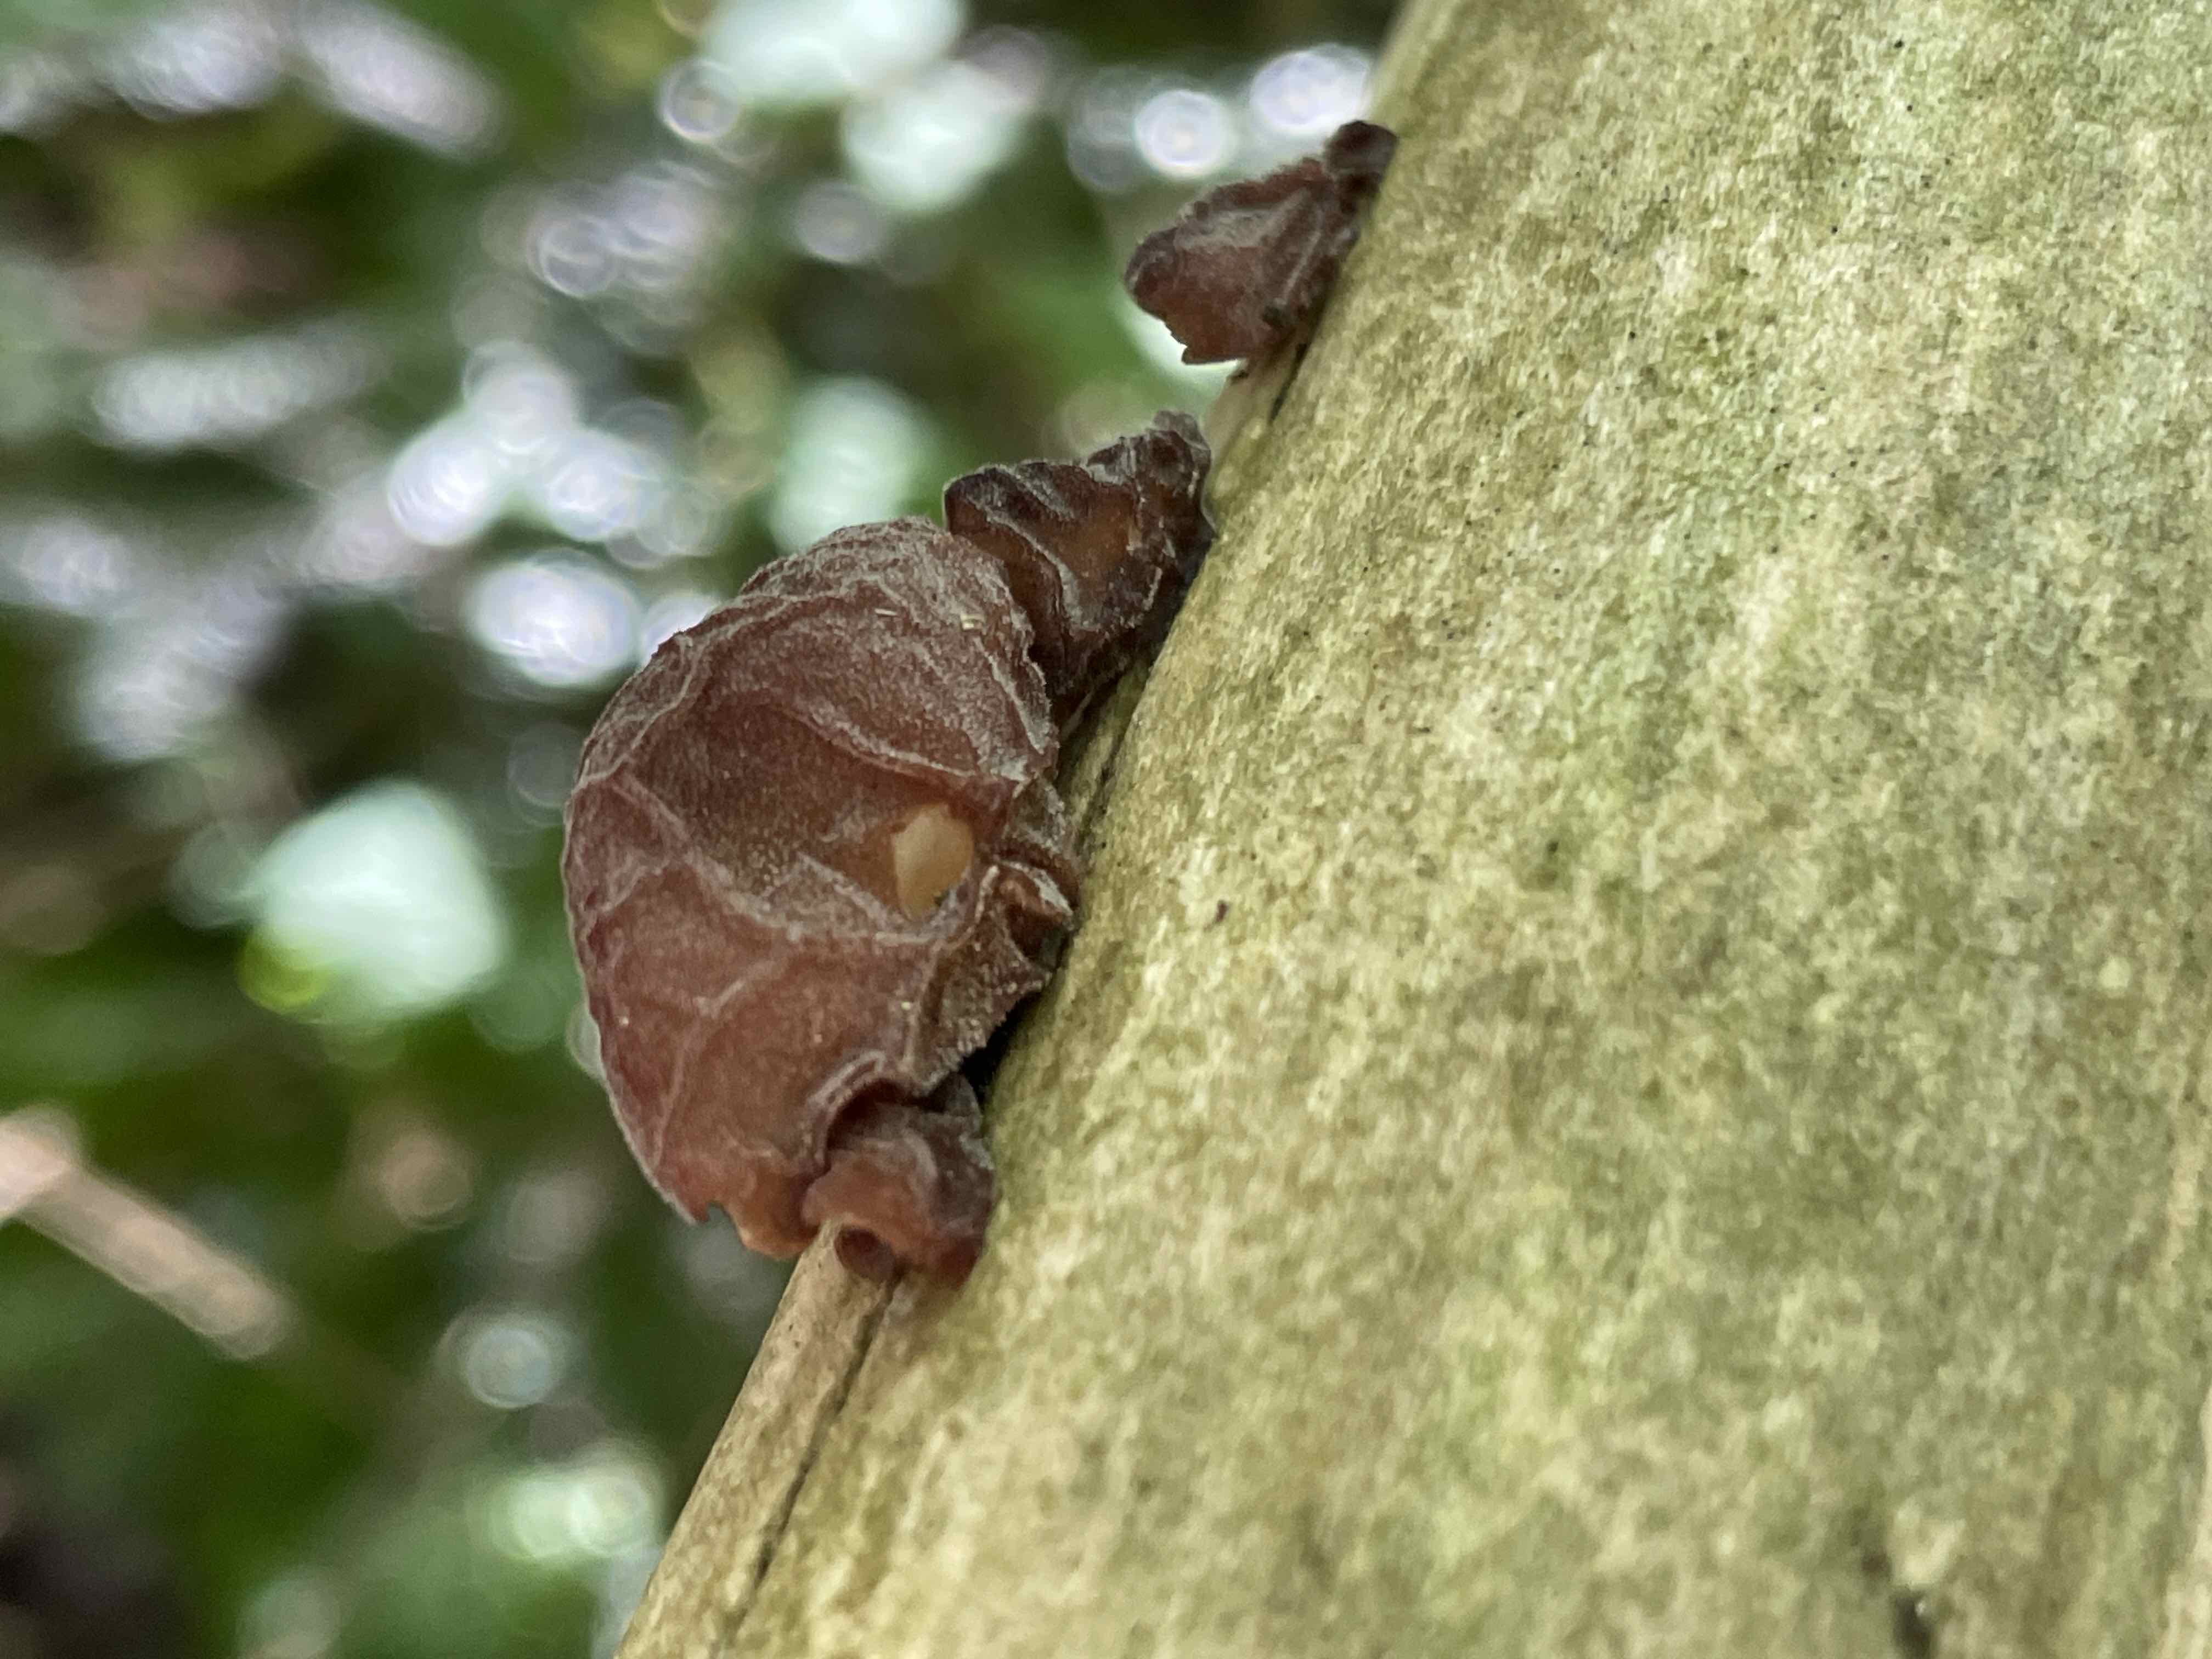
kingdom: Fungi
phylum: Basidiomycota
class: Agaricomycetes
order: Auriculariales
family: Auriculariaceae
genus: Auricularia
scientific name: Auricularia auricula-judae
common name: almindelig judasøre
